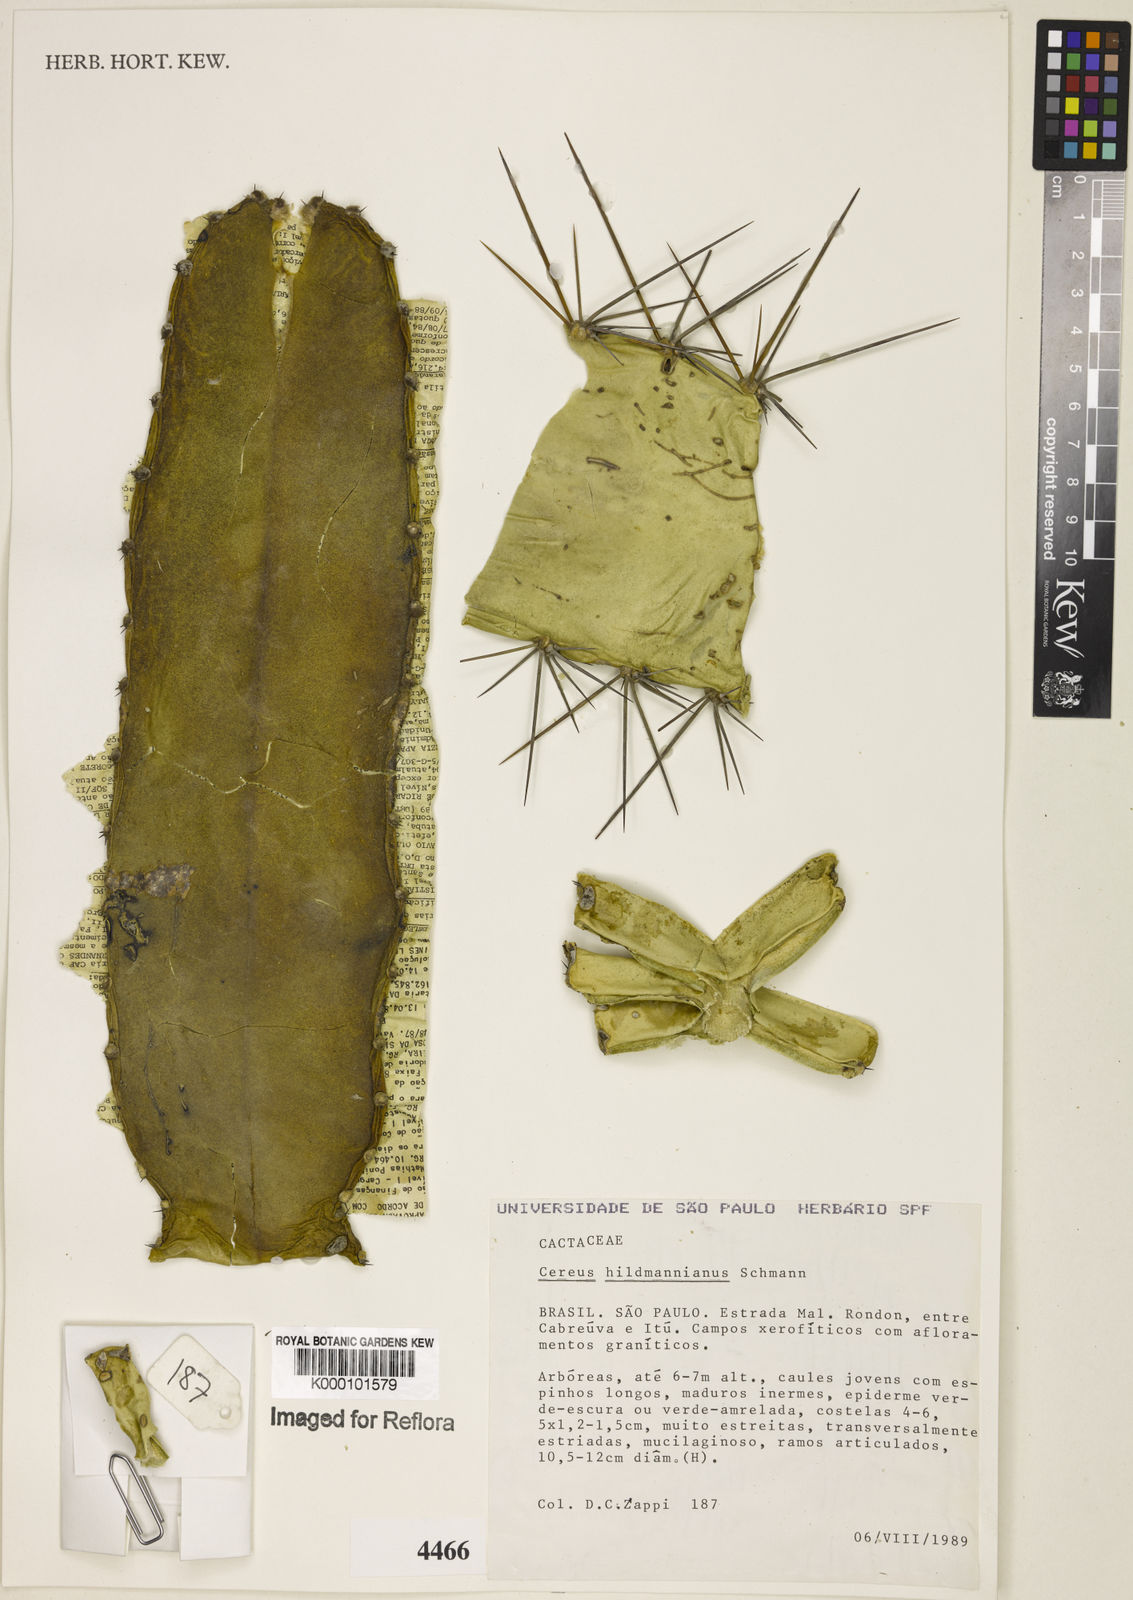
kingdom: Plantae
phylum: Tracheophyta
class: Magnoliopsida
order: Caryophyllales
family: Cactaceae
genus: Cereus
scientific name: Cereus hildmannianus
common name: Hedge cactus
